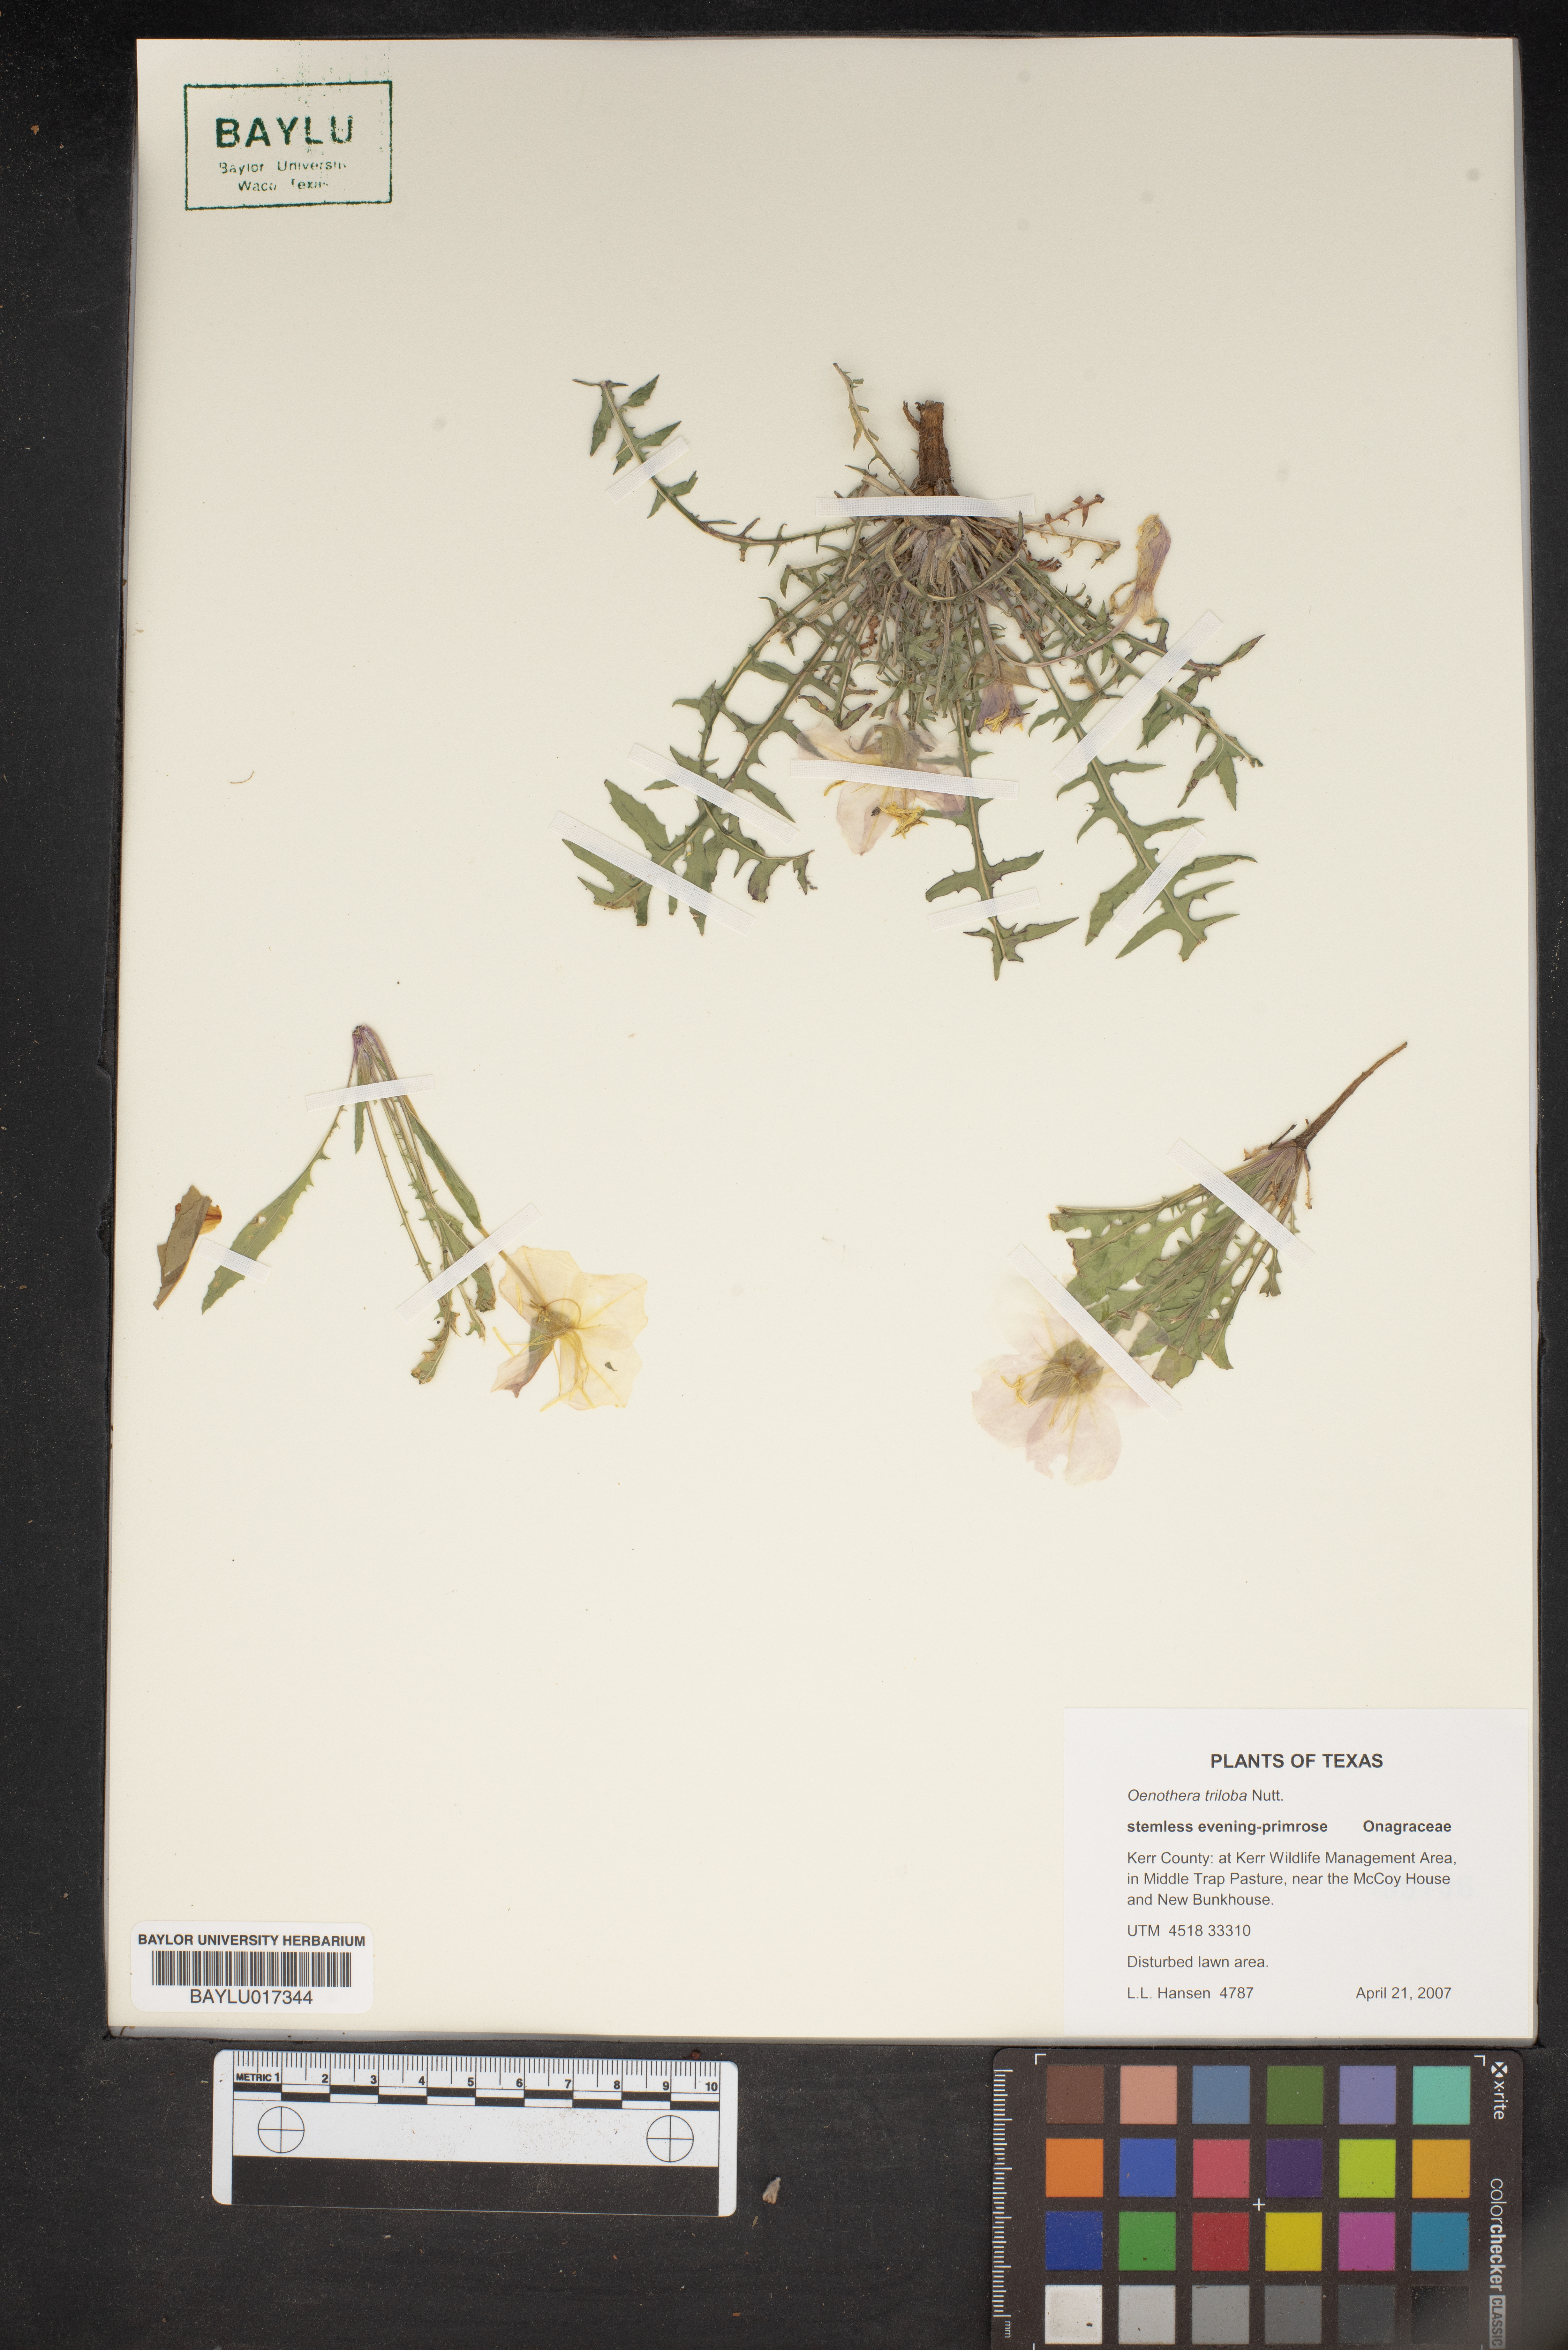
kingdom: Plantae
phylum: Tracheophyta
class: Magnoliopsida
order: Myrtales
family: Onagraceae
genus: Oenothera
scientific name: Oenothera triloba
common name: Sessile evening-primrose
